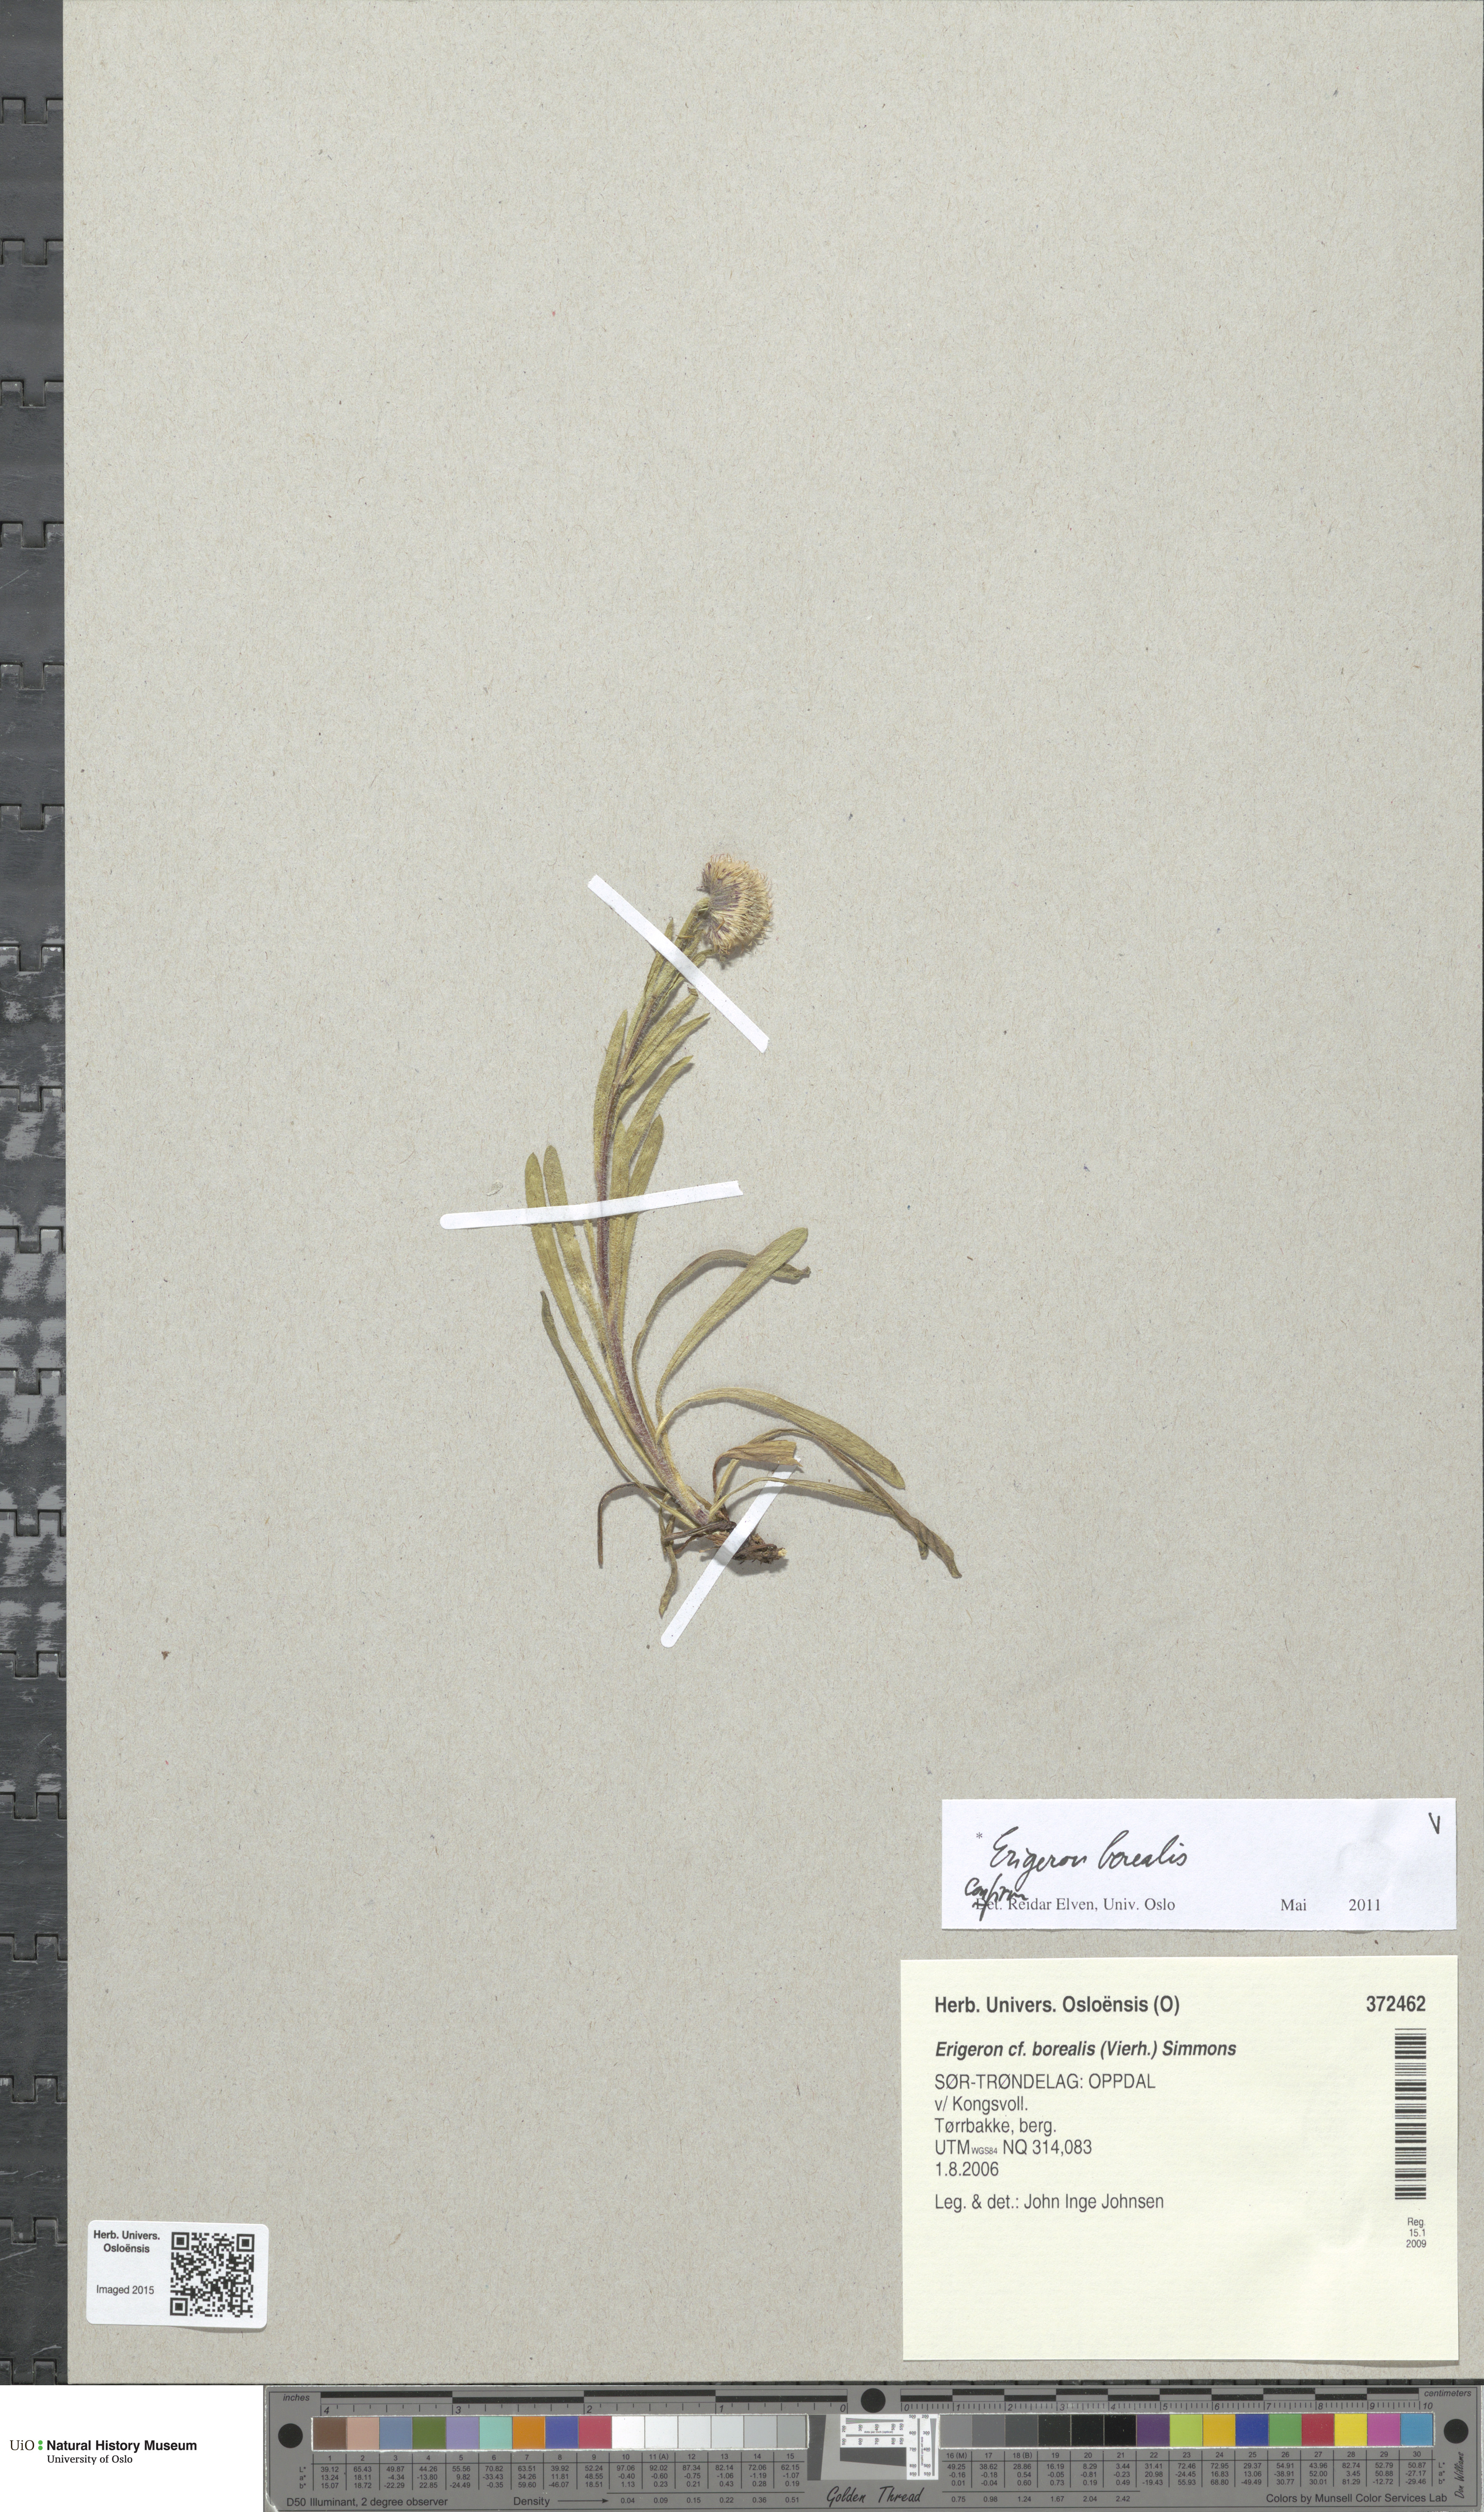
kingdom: Plantae
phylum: Tracheophyta
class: Magnoliopsida
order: Asterales
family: Asteraceae
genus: Erigeron
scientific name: Erigeron borealis
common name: Alpine fleabane
